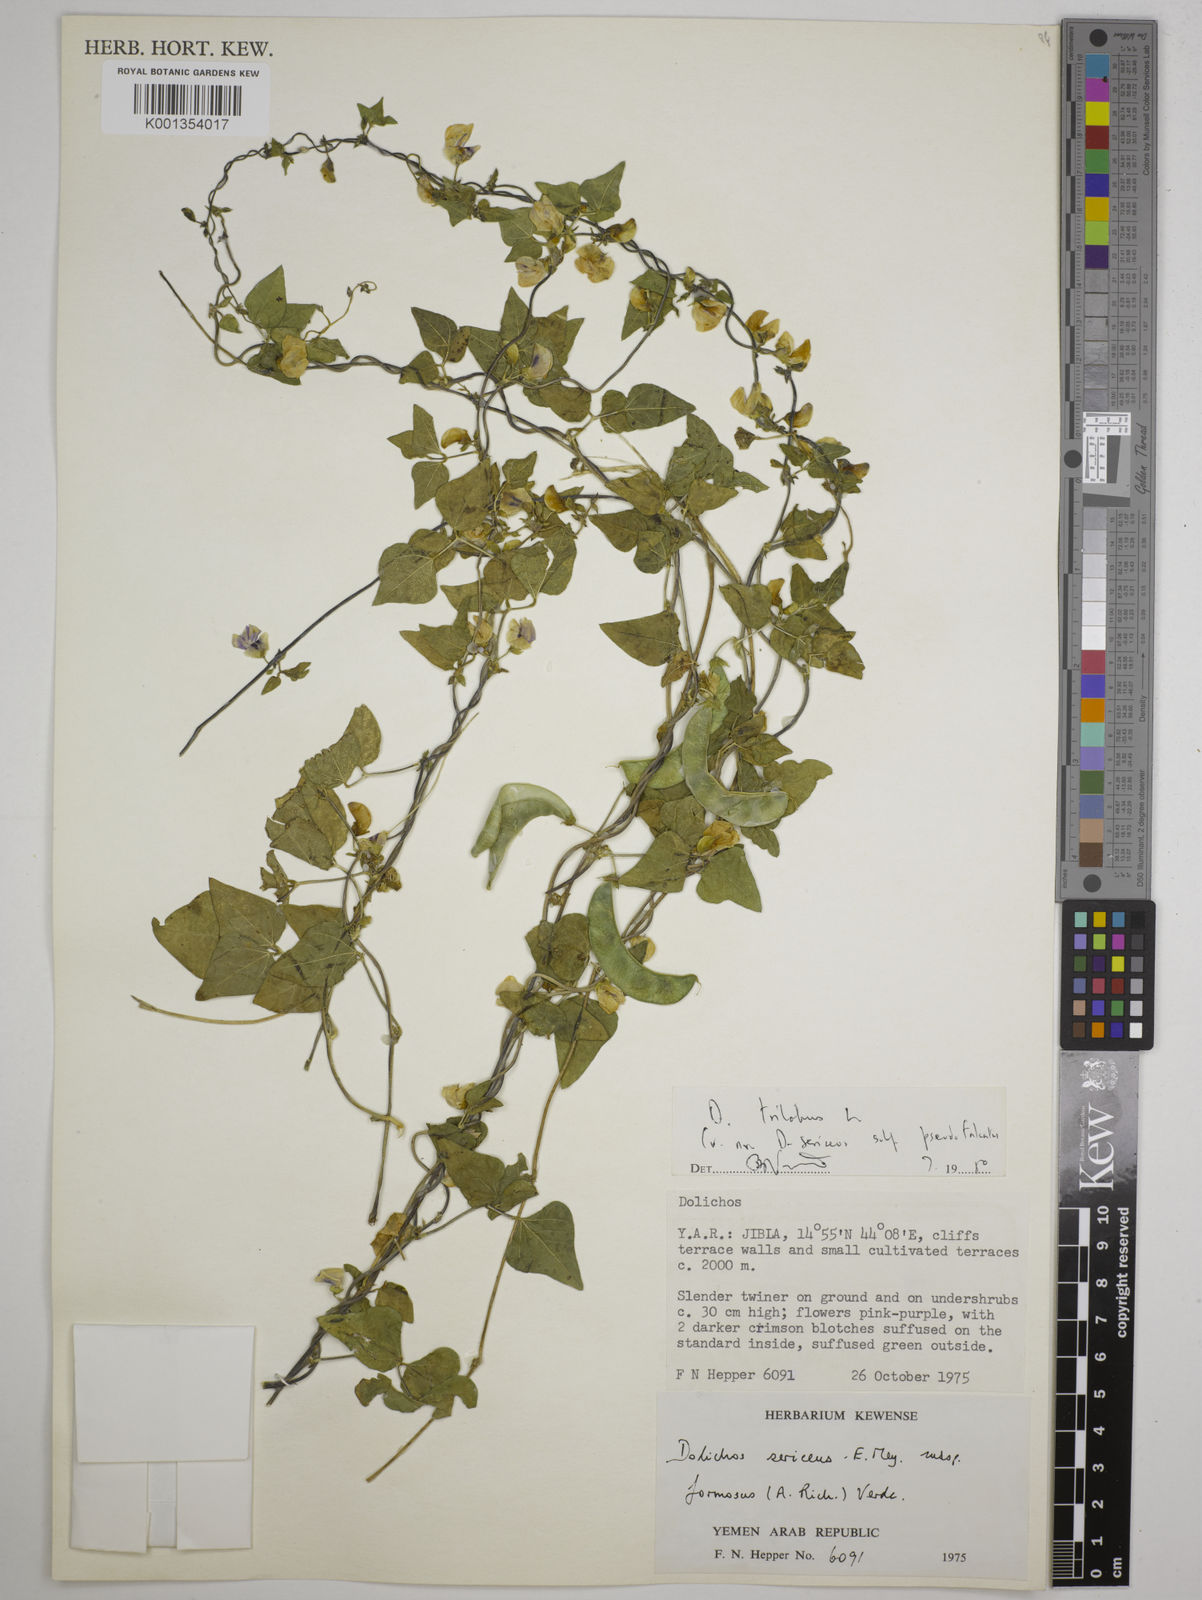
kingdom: Plantae
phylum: Tracheophyta
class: Magnoliopsida
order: Fabales
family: Fabaceae
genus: Dolichos
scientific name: Dolichos
